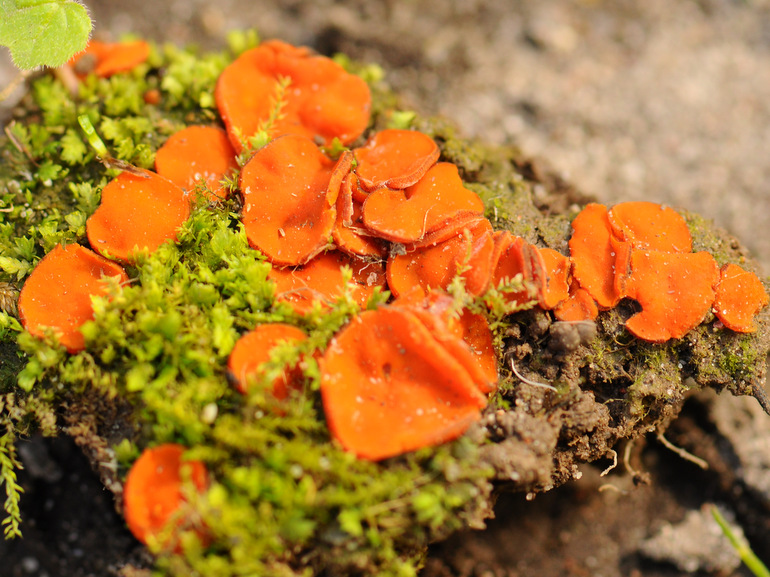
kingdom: Fungi
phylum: Ascomycota
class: Pezizomycetes
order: Pezizales
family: Pyronemataceae
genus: Melastiza
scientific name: Melastiza cornubiensis
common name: mørkrandet rødbæger
